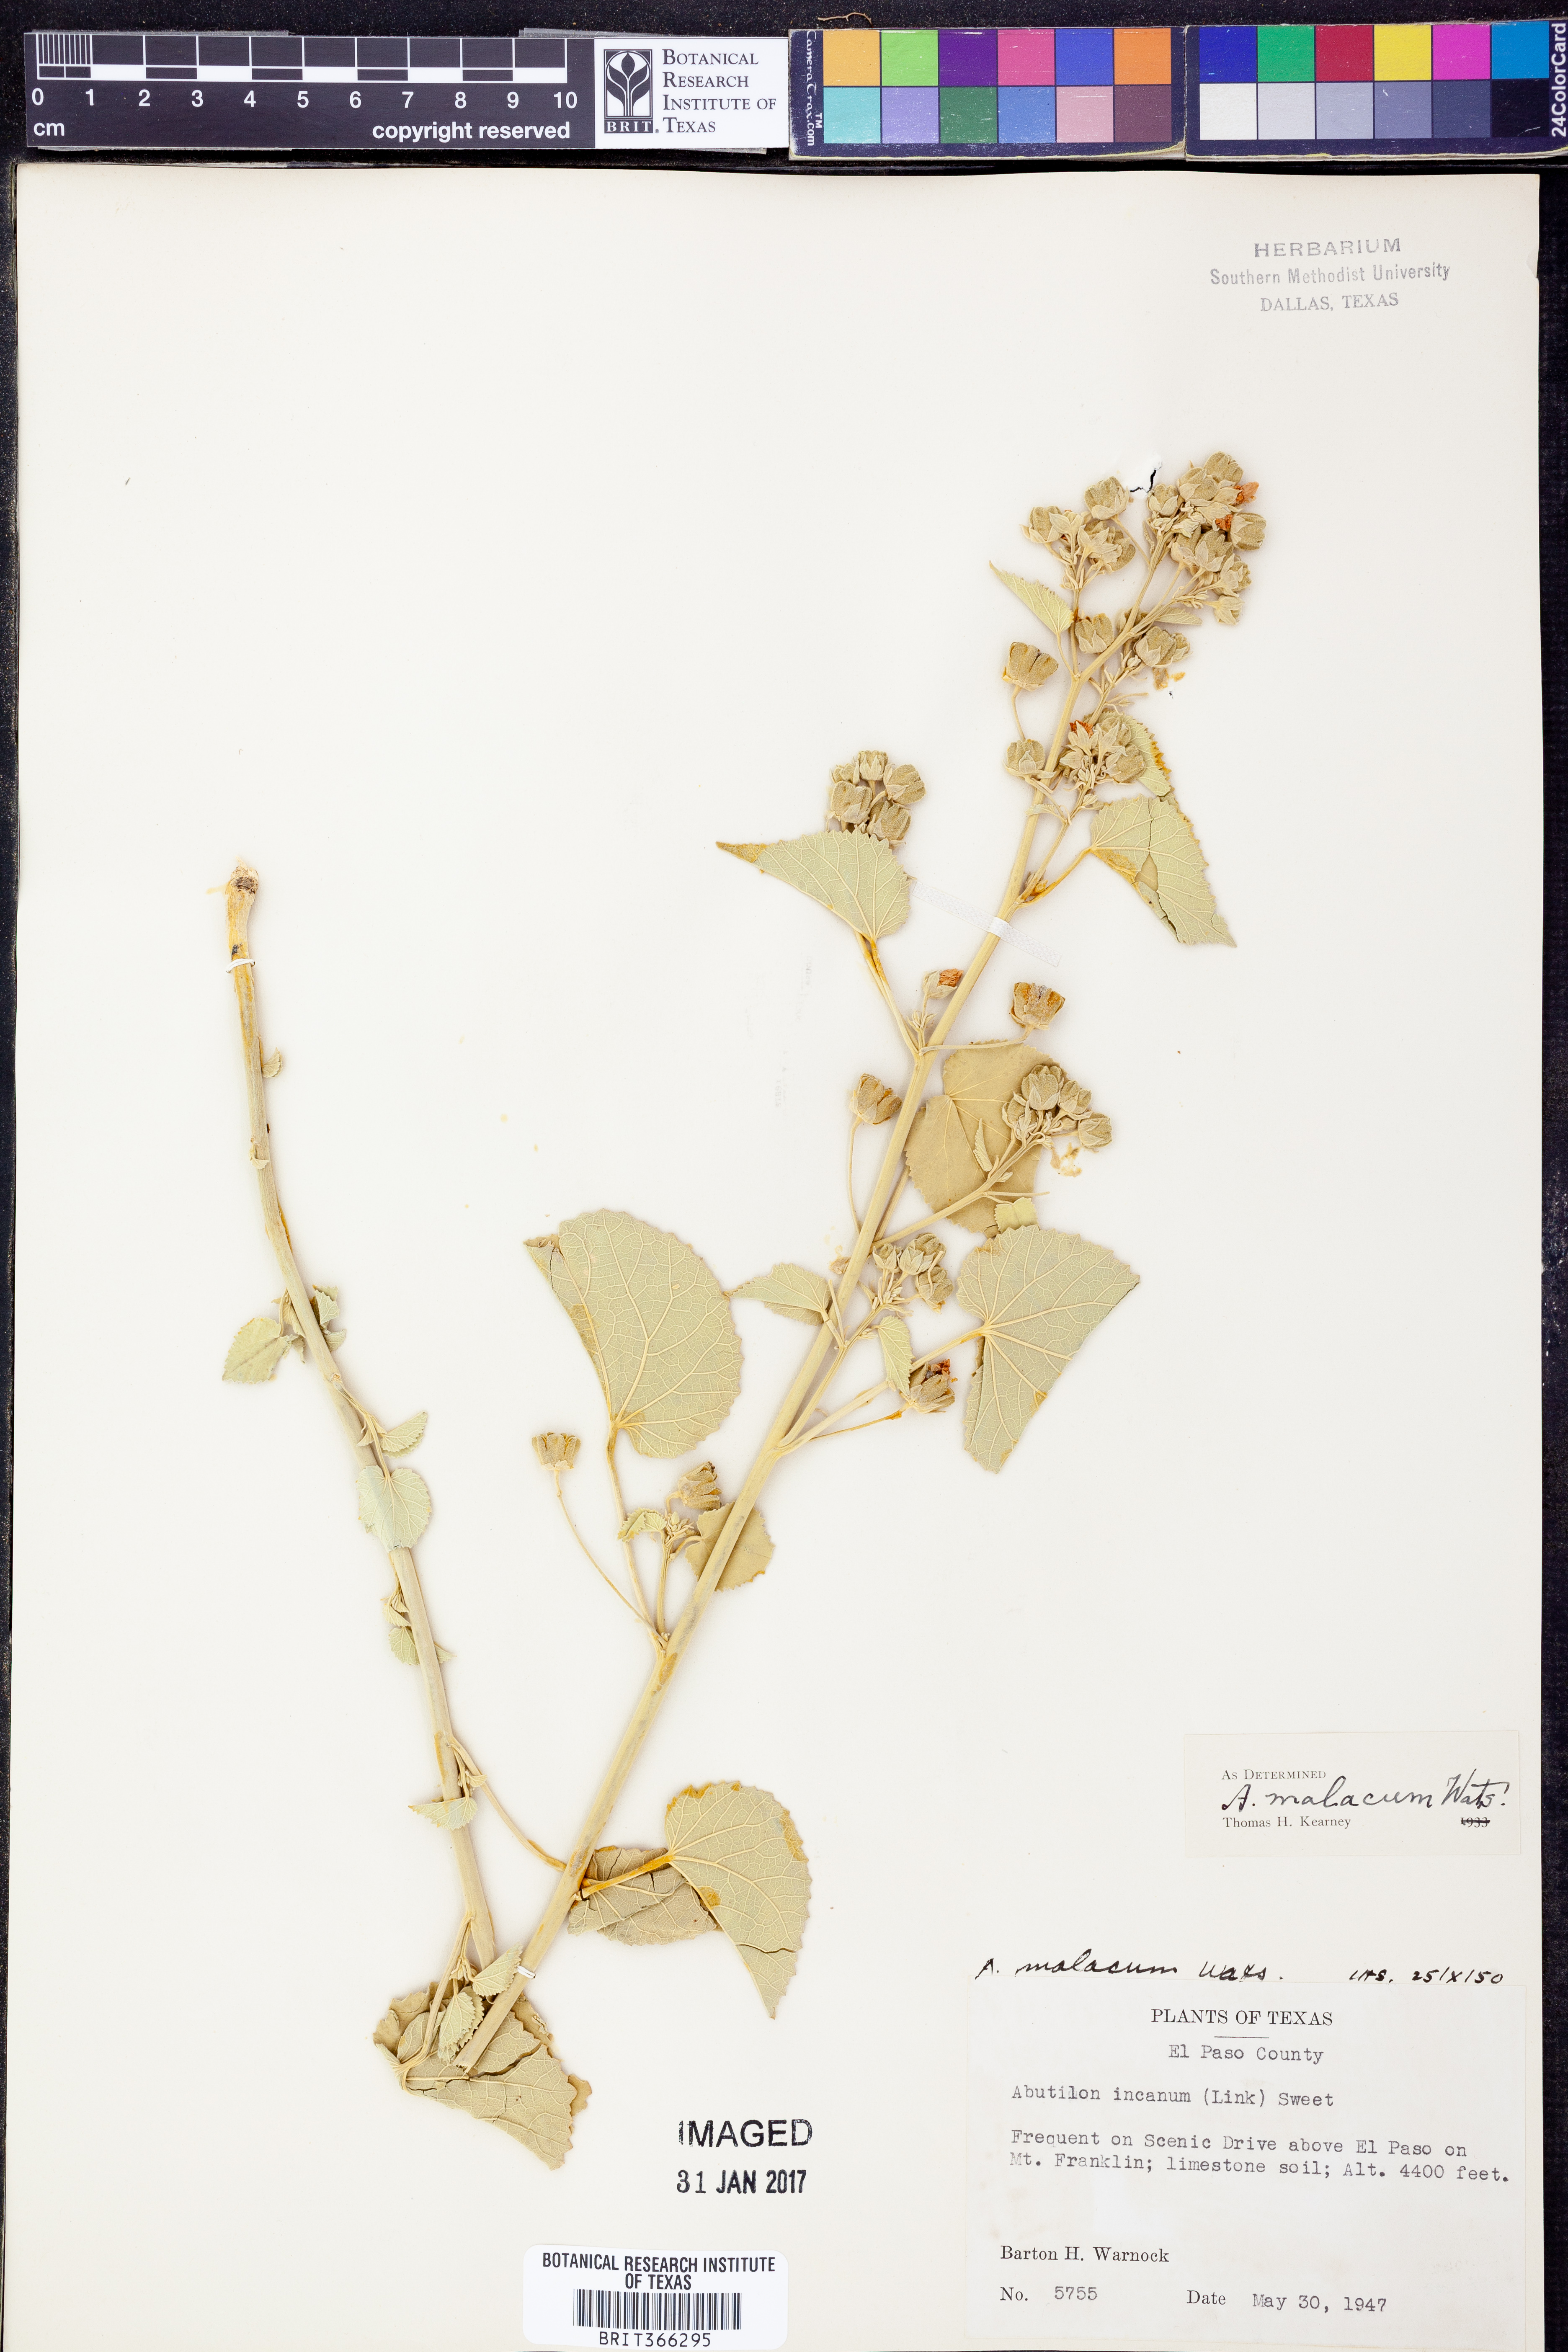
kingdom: Plantae
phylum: Tracheophyta
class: Magnoliopsida
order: Malvales
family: Malvaceae
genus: Abutilon
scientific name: Abutilon malacum
